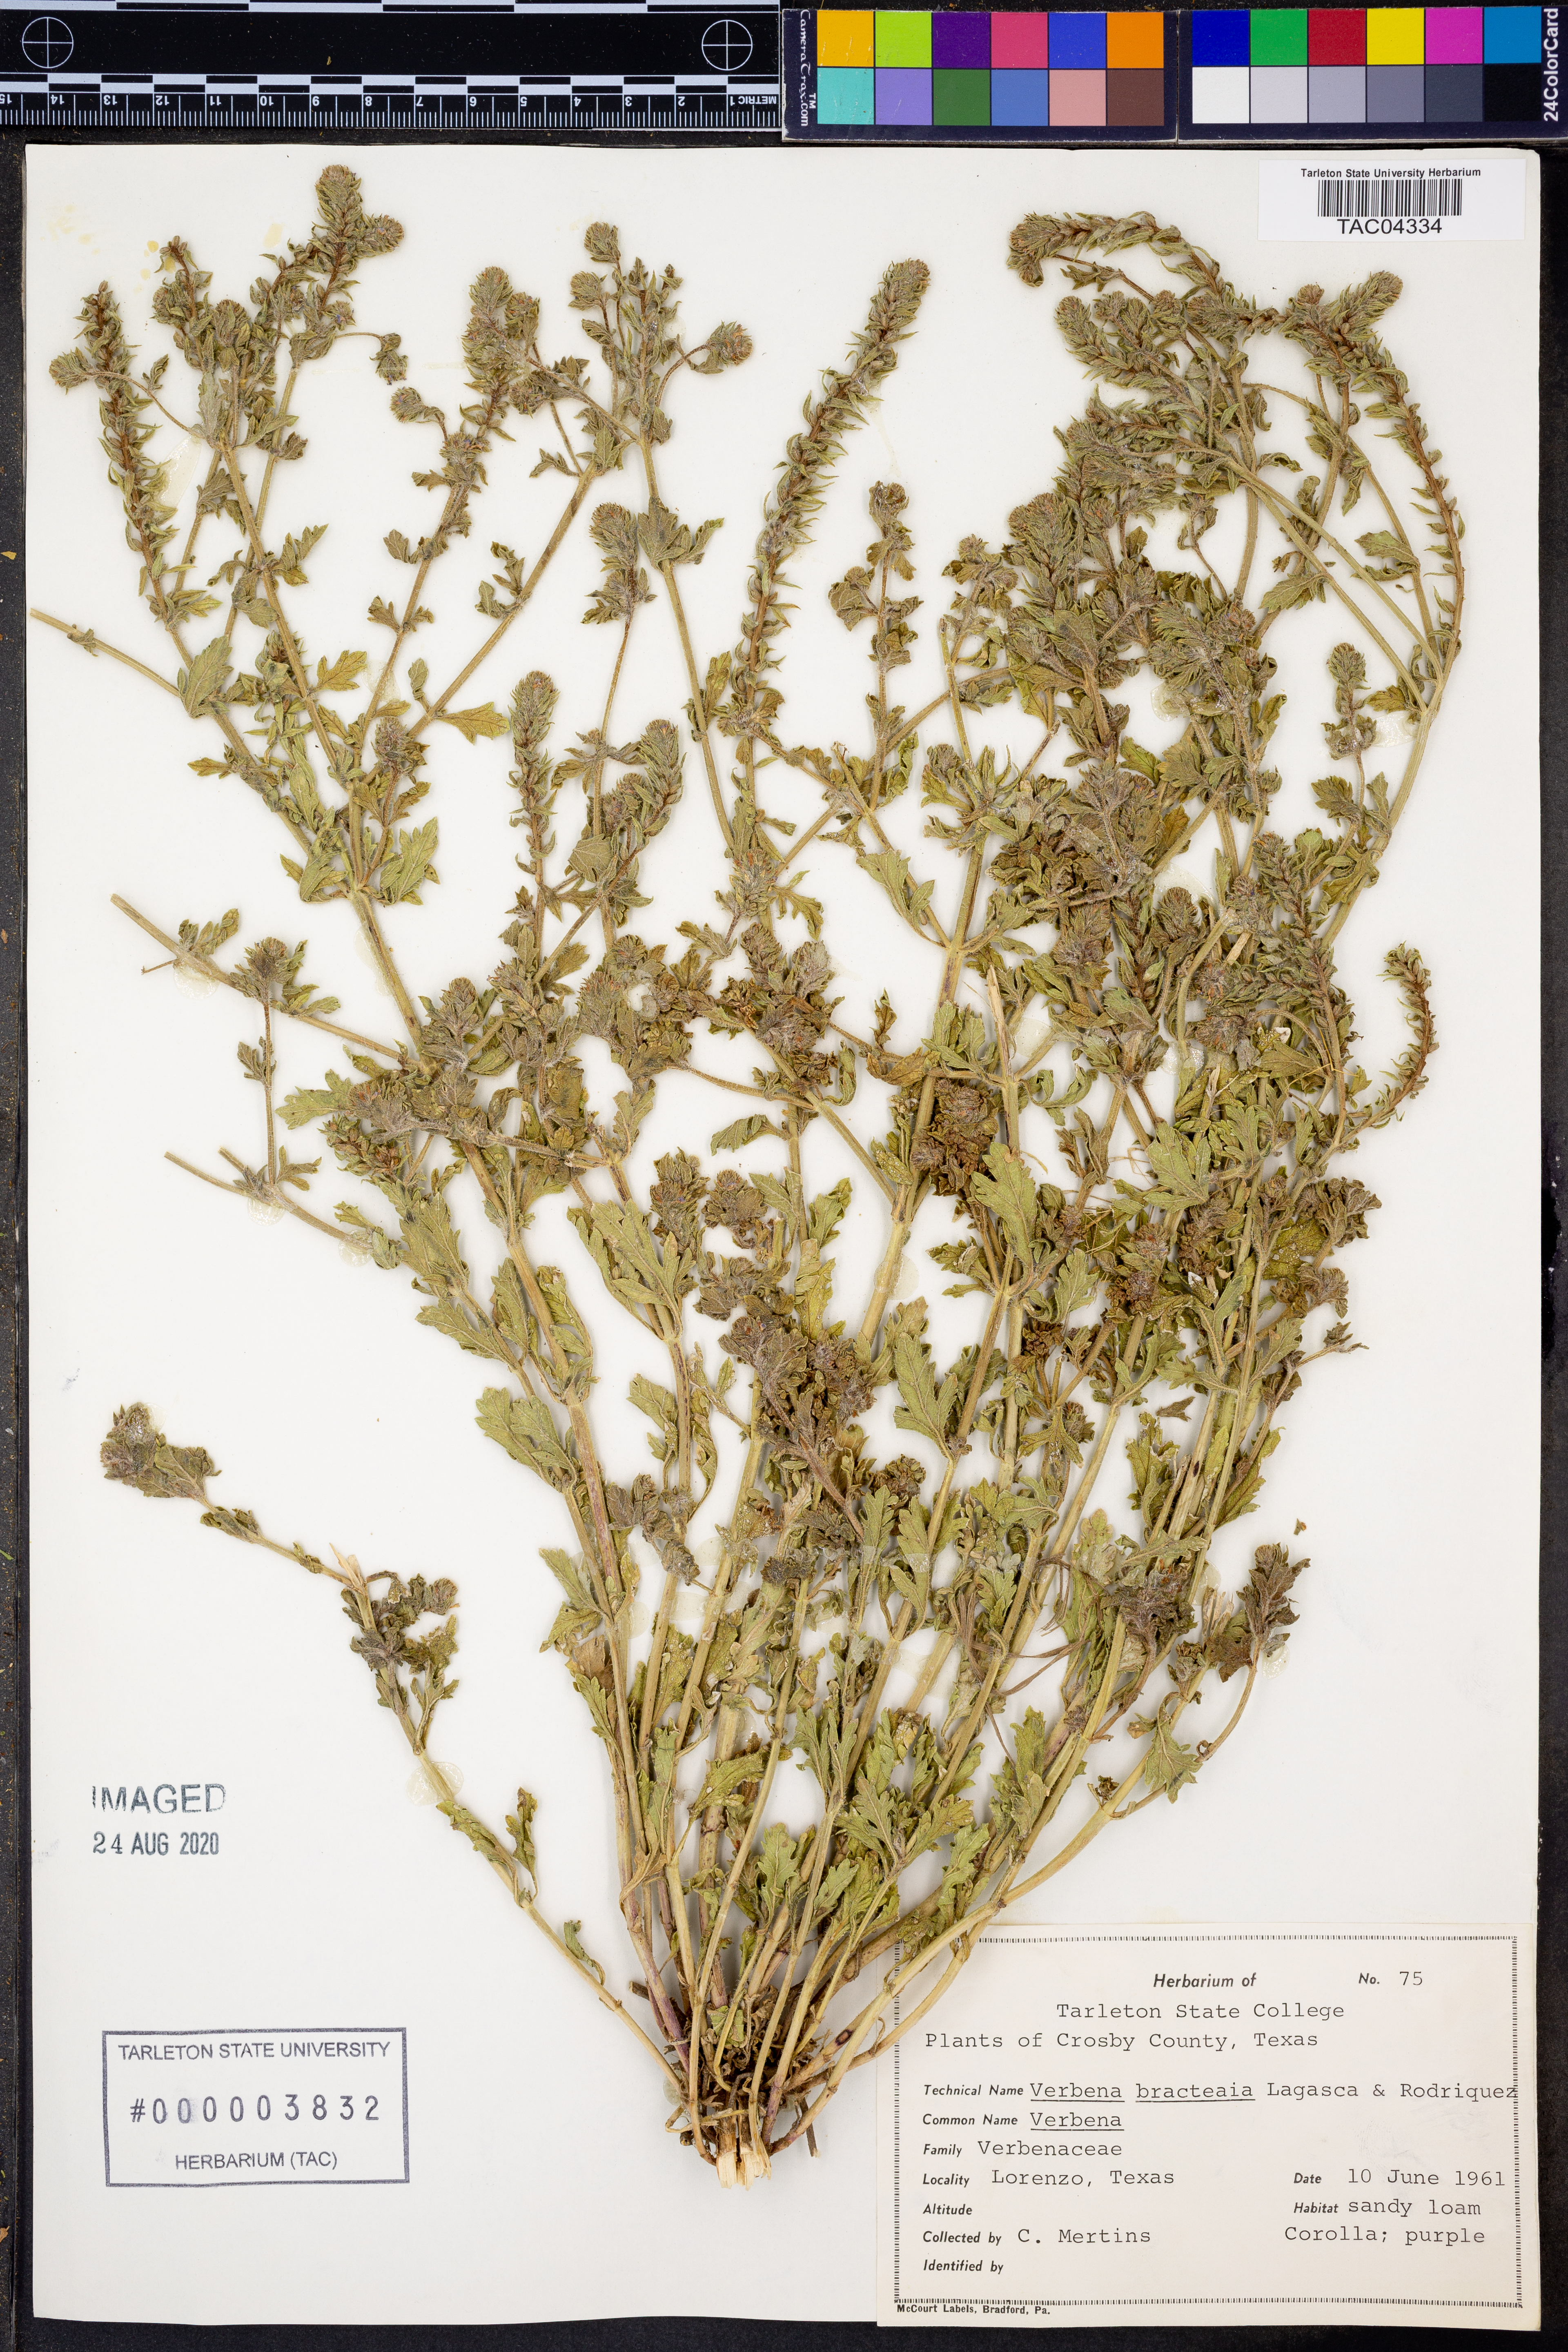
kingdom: Plantae
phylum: Tracheophyta
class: Magnoliopsida
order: Lamiales
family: Verbenaceae
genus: Verbena
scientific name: Verbena bracteata
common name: Bracted vervain
